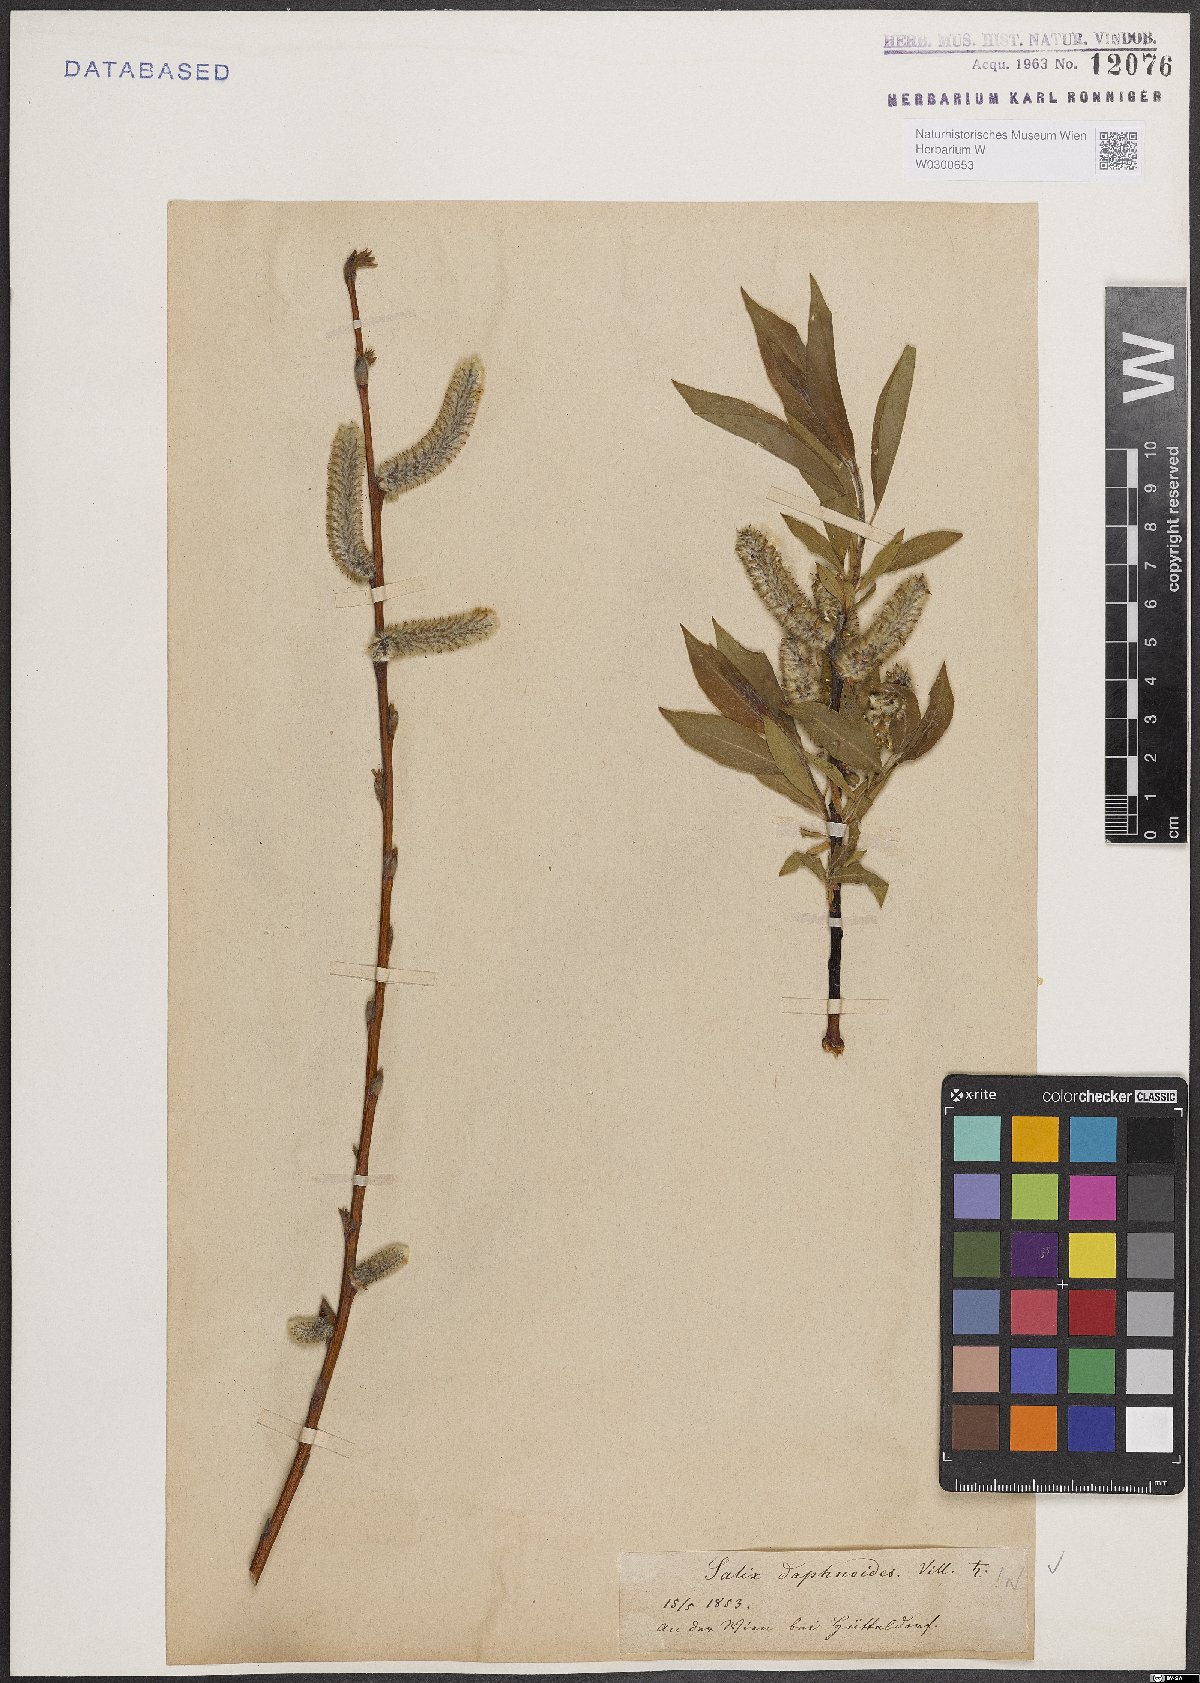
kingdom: Plantae
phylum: Tracheophyta
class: Magnoliopsida
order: Malpighiales
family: Salicaceae
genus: Salix
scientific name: Salix daphnoides
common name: European violet-willow
